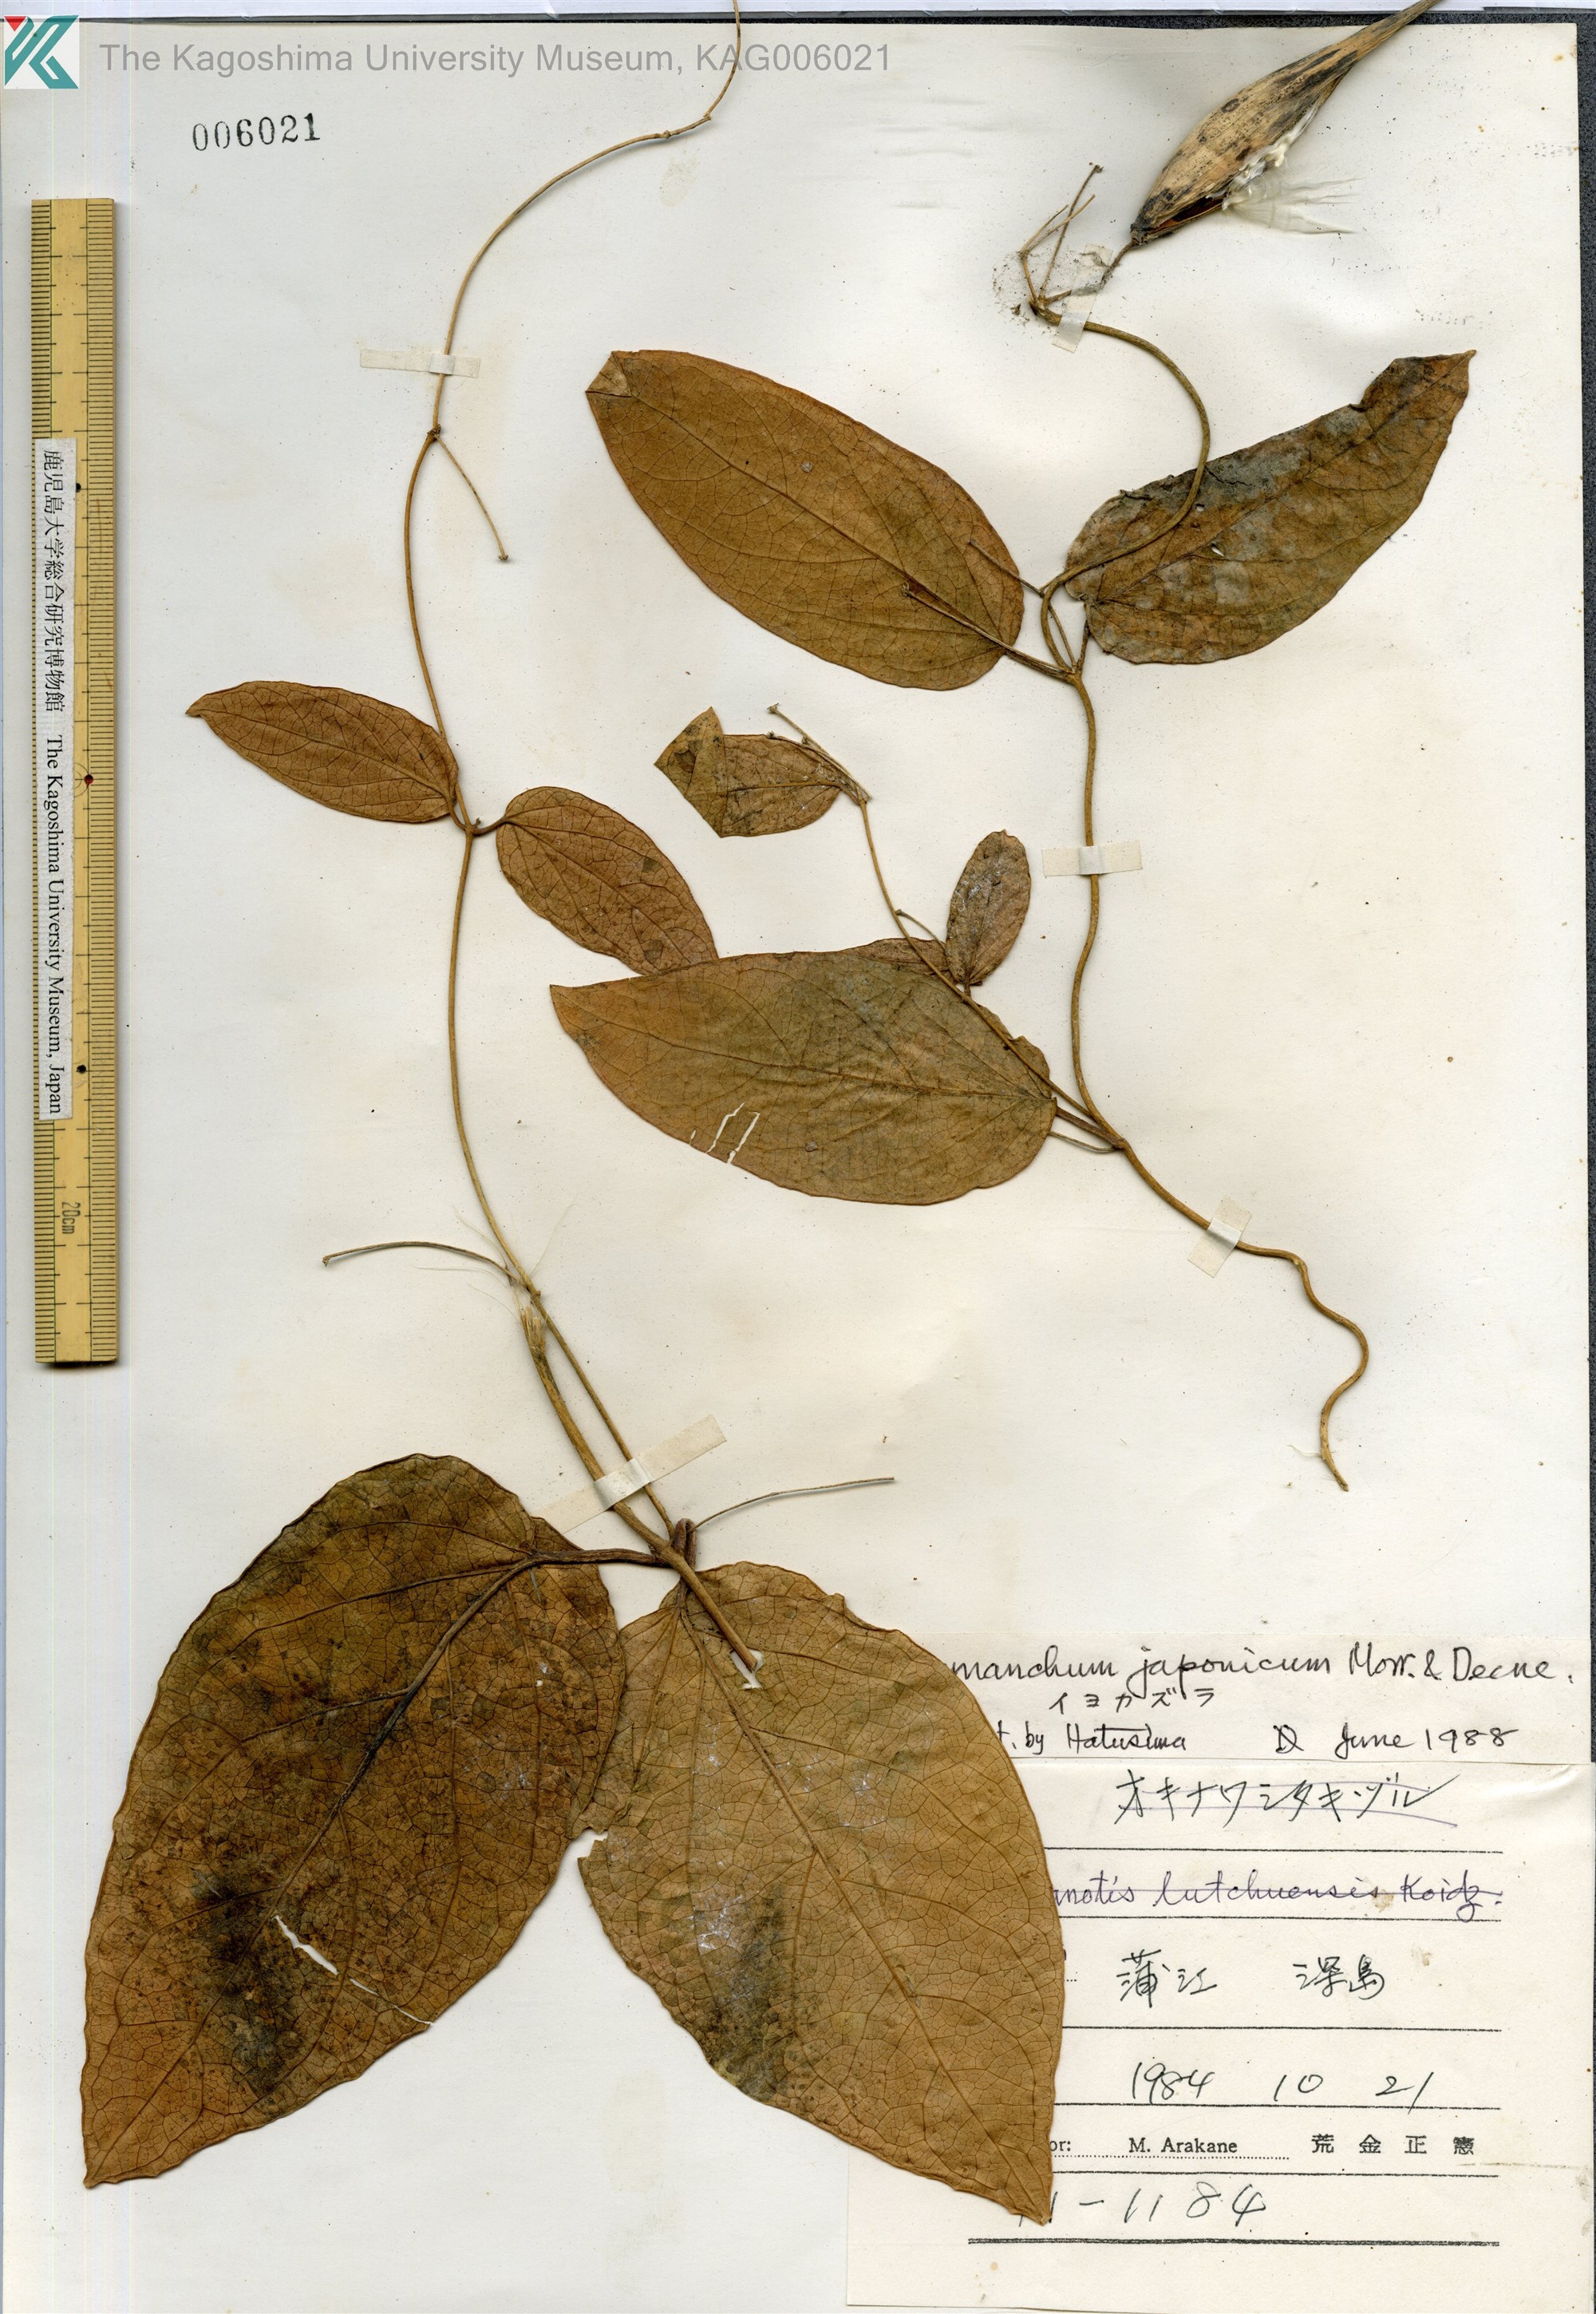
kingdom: Plantae
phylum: Tracheophyta
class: Magnoliopsida
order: Gentianales
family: Apocynaceae
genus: Vincetoxicum
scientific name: Vincetoxicum japonicum
